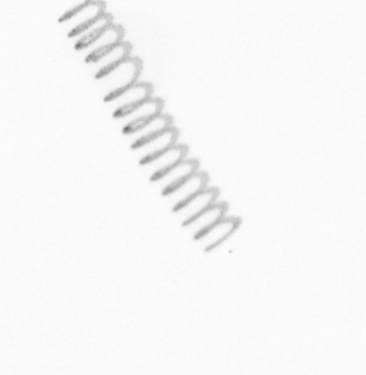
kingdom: Chromista
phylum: Ochrophyta
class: Bacillariophyceae
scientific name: Bacillariophyceae
